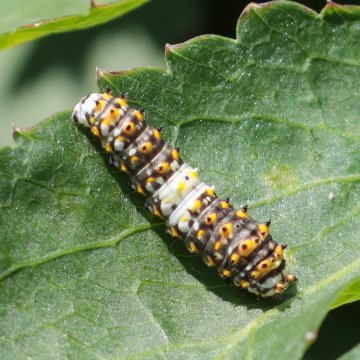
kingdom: Animalia
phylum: Arthropoda
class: Insecta
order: Lepidoptera
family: Papilionidae
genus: Papilio
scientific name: Papilio polyxenes
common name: Black Swallowtail
